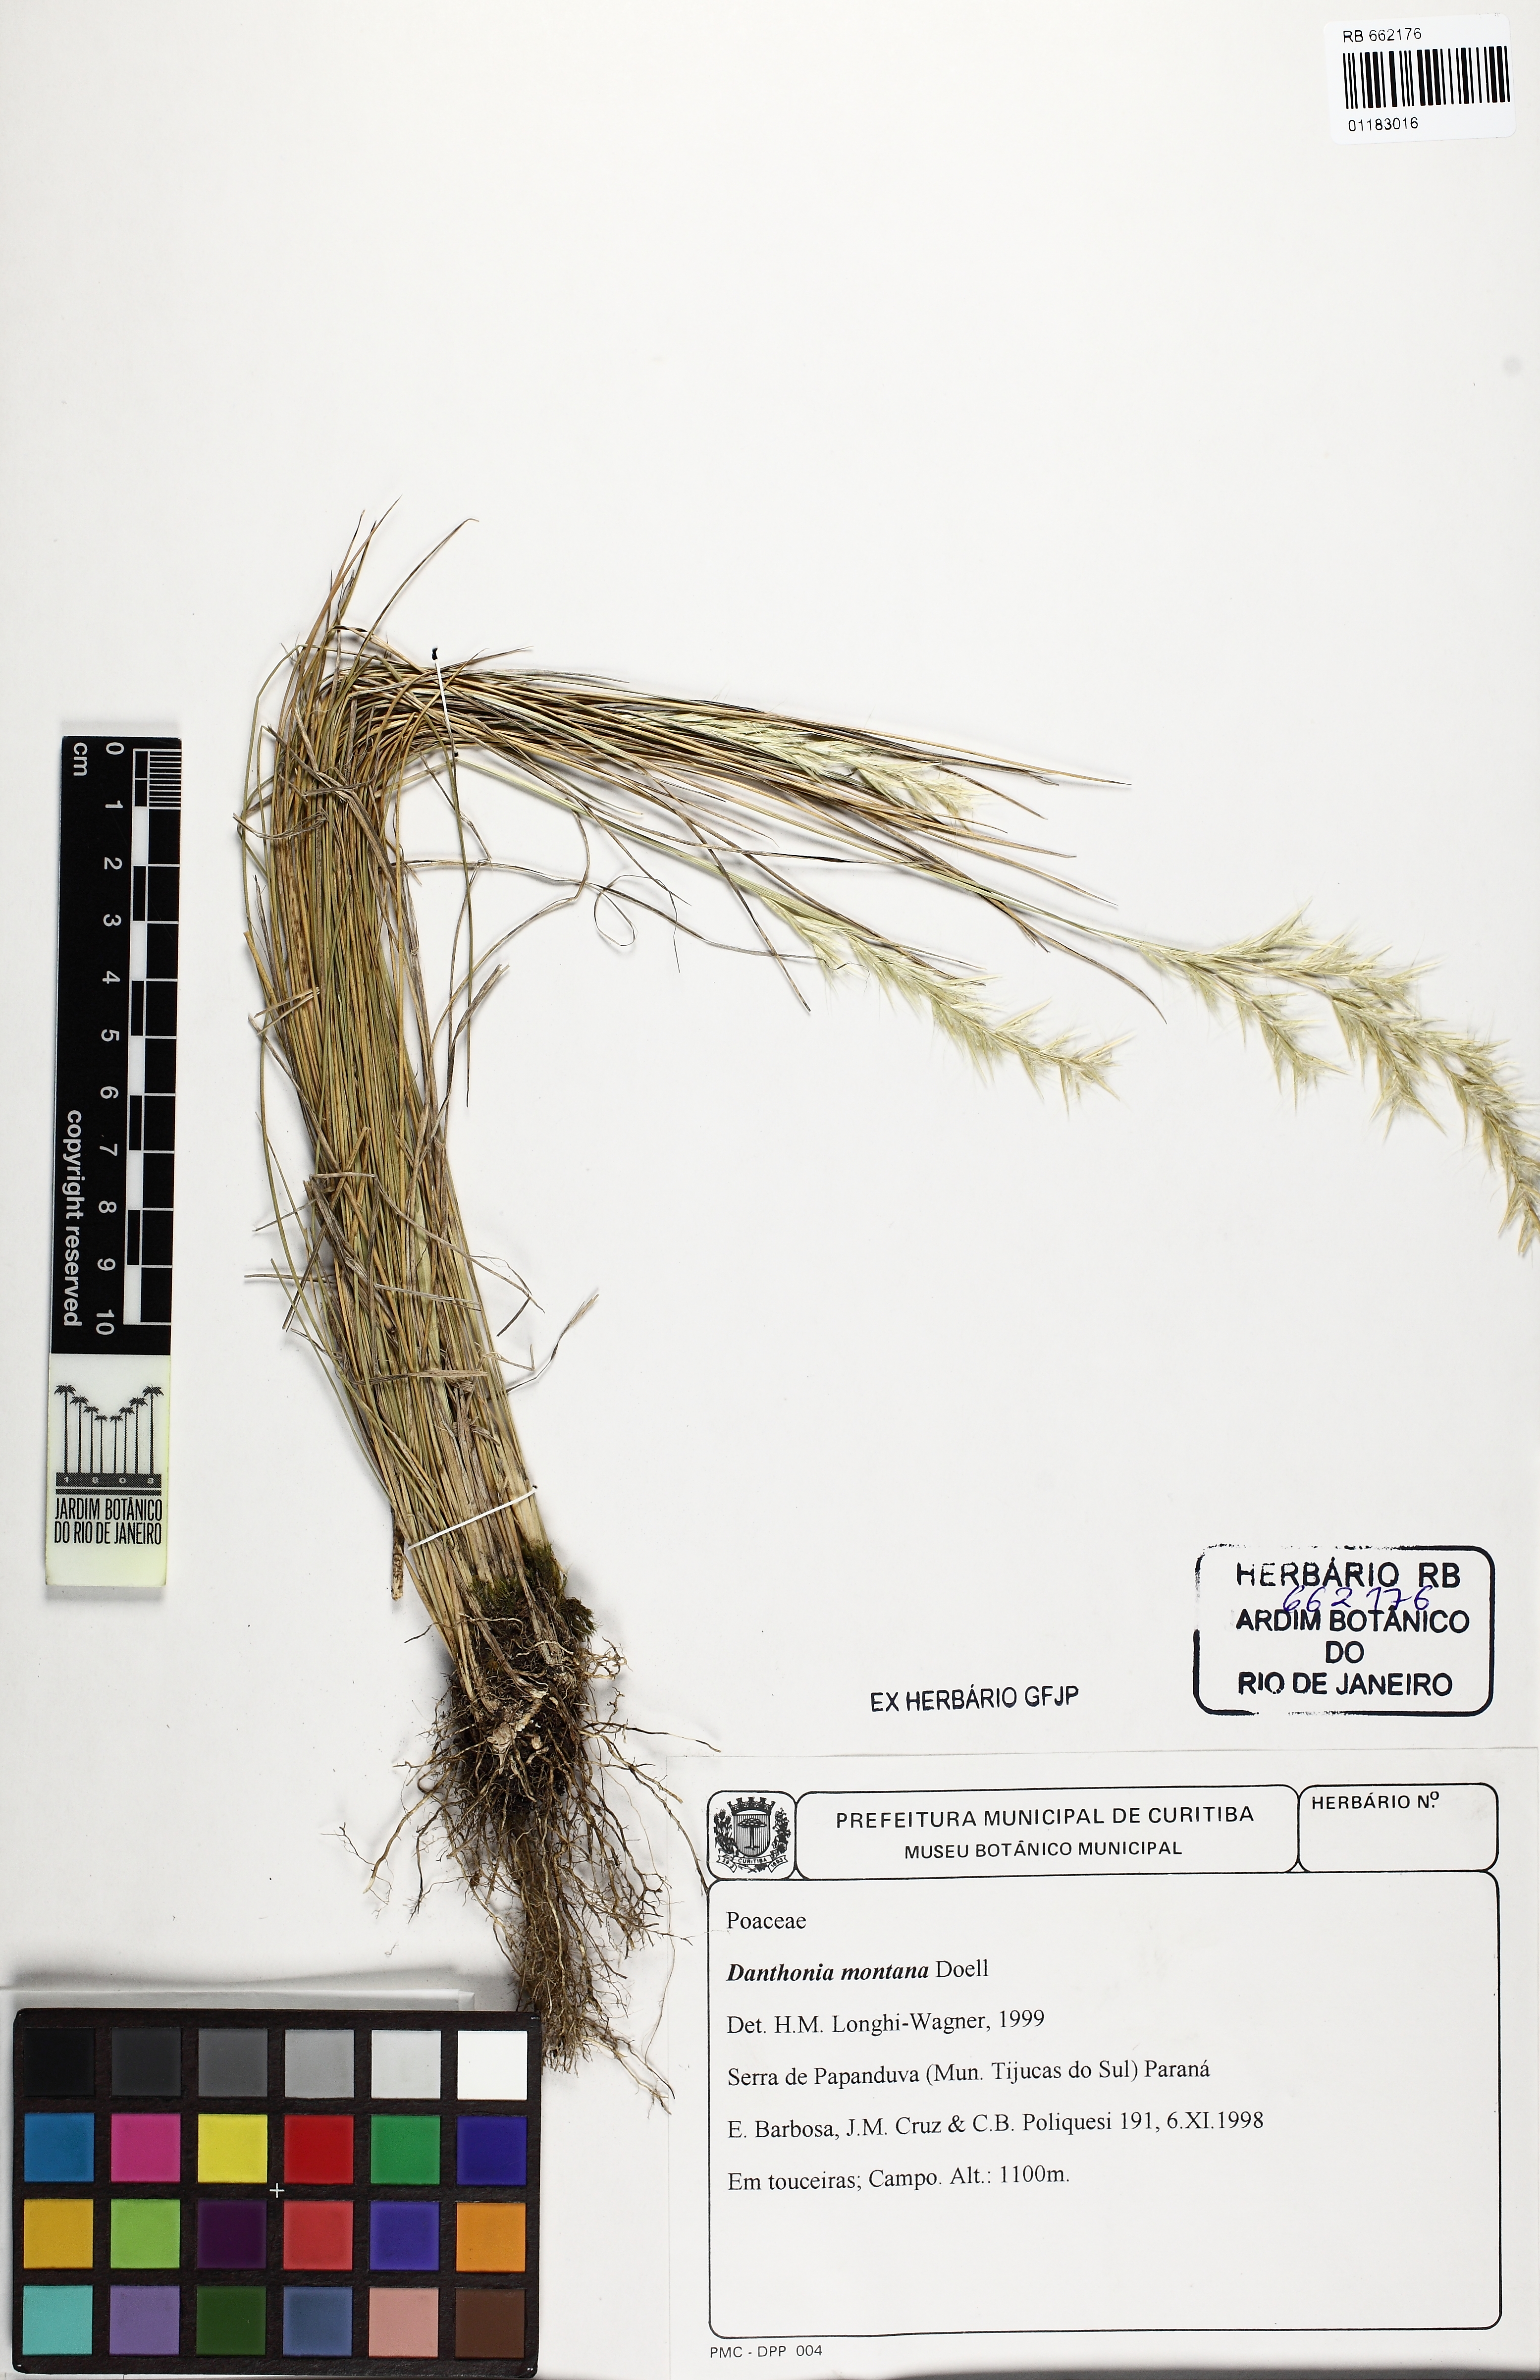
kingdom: Plantae
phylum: Tracheophyta
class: Liliopsida
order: Poales
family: Poaceae
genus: Danthonia
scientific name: Danthonia secundiflora
